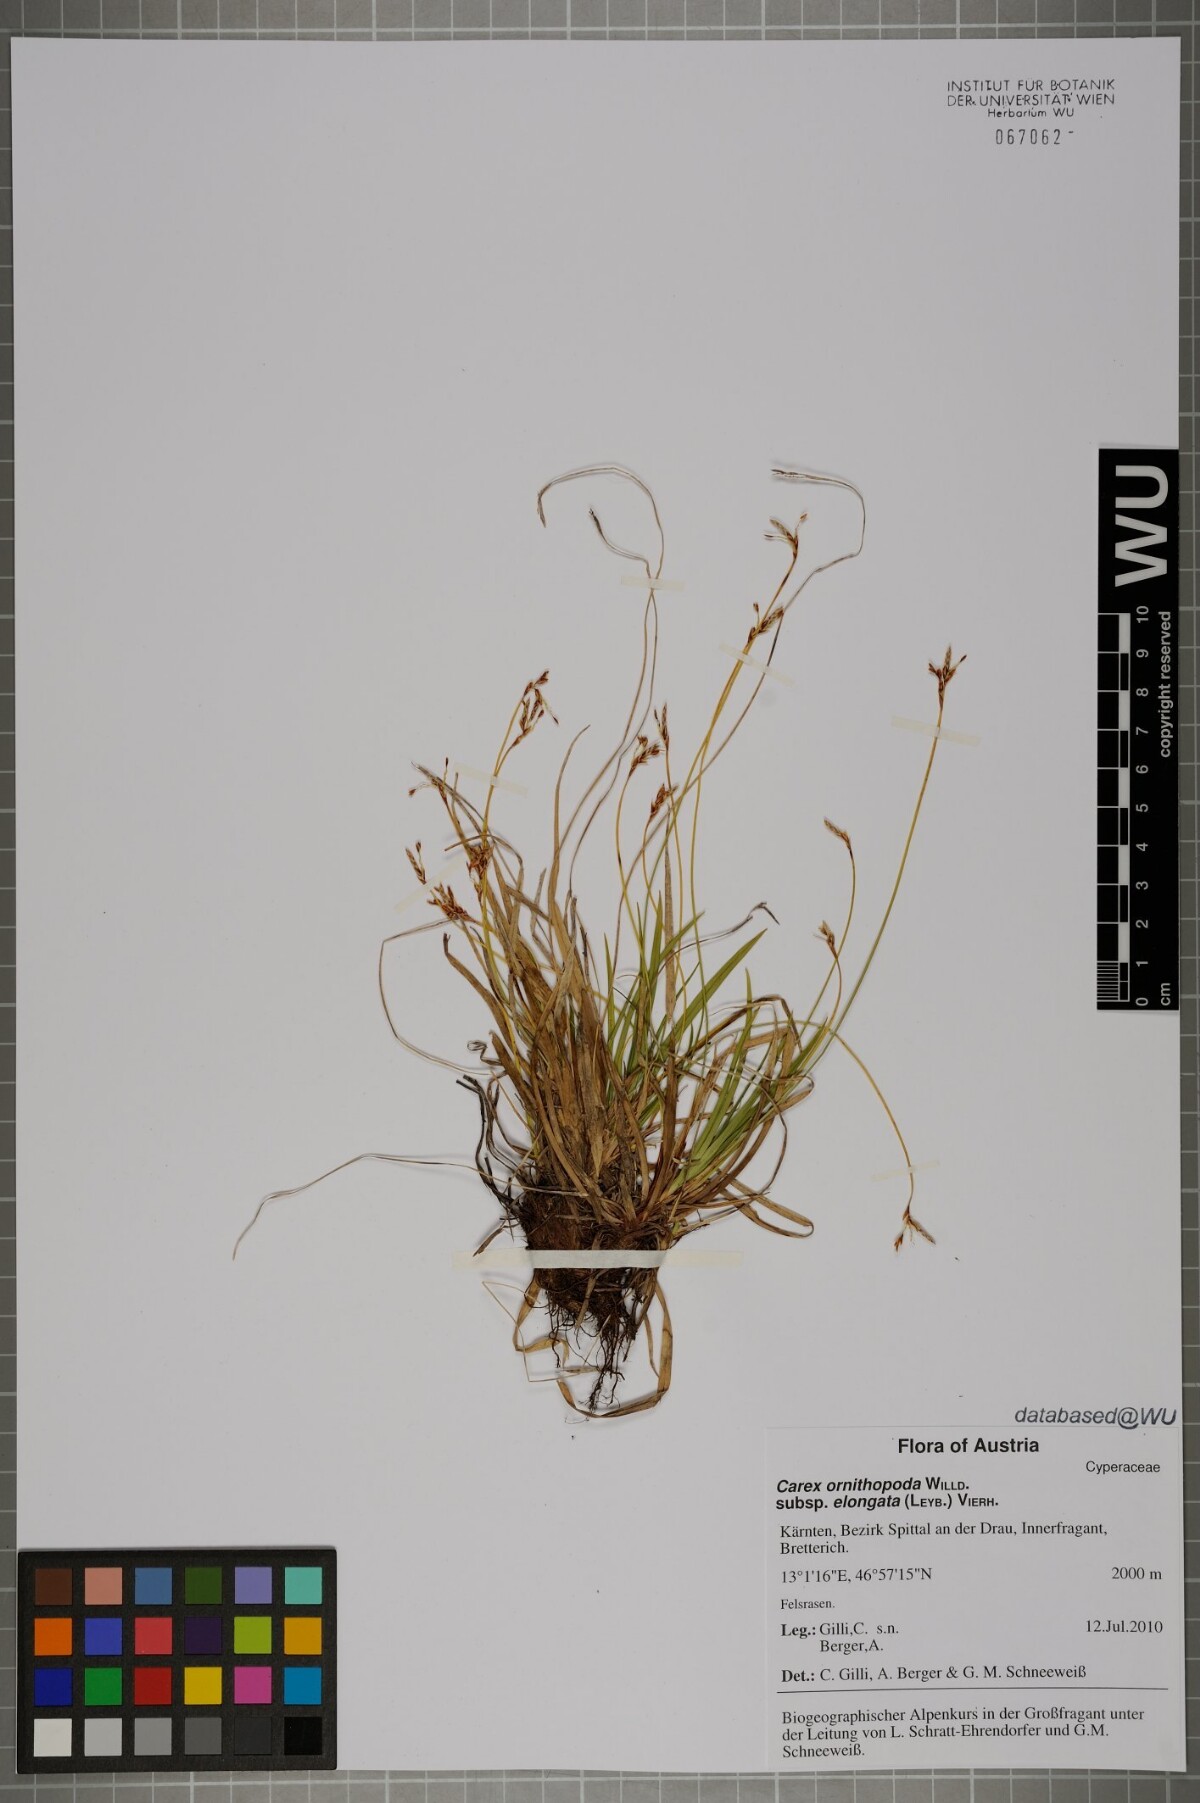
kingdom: Plantae
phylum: Tracheophyta
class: Liliopsida
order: Poales
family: Cyperaceae
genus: Carex
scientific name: Carex ornithopoda
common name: Bird's-foot sedge
